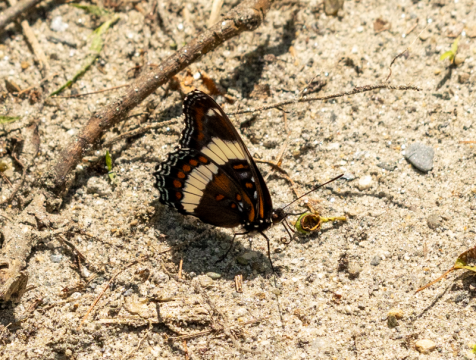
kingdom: Animalia
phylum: Arthropoda
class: Insecta
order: Lepidoptera
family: Nymphalidae
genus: Limenitis
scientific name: Limenitis arthemis
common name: Red-spotted Admiral
